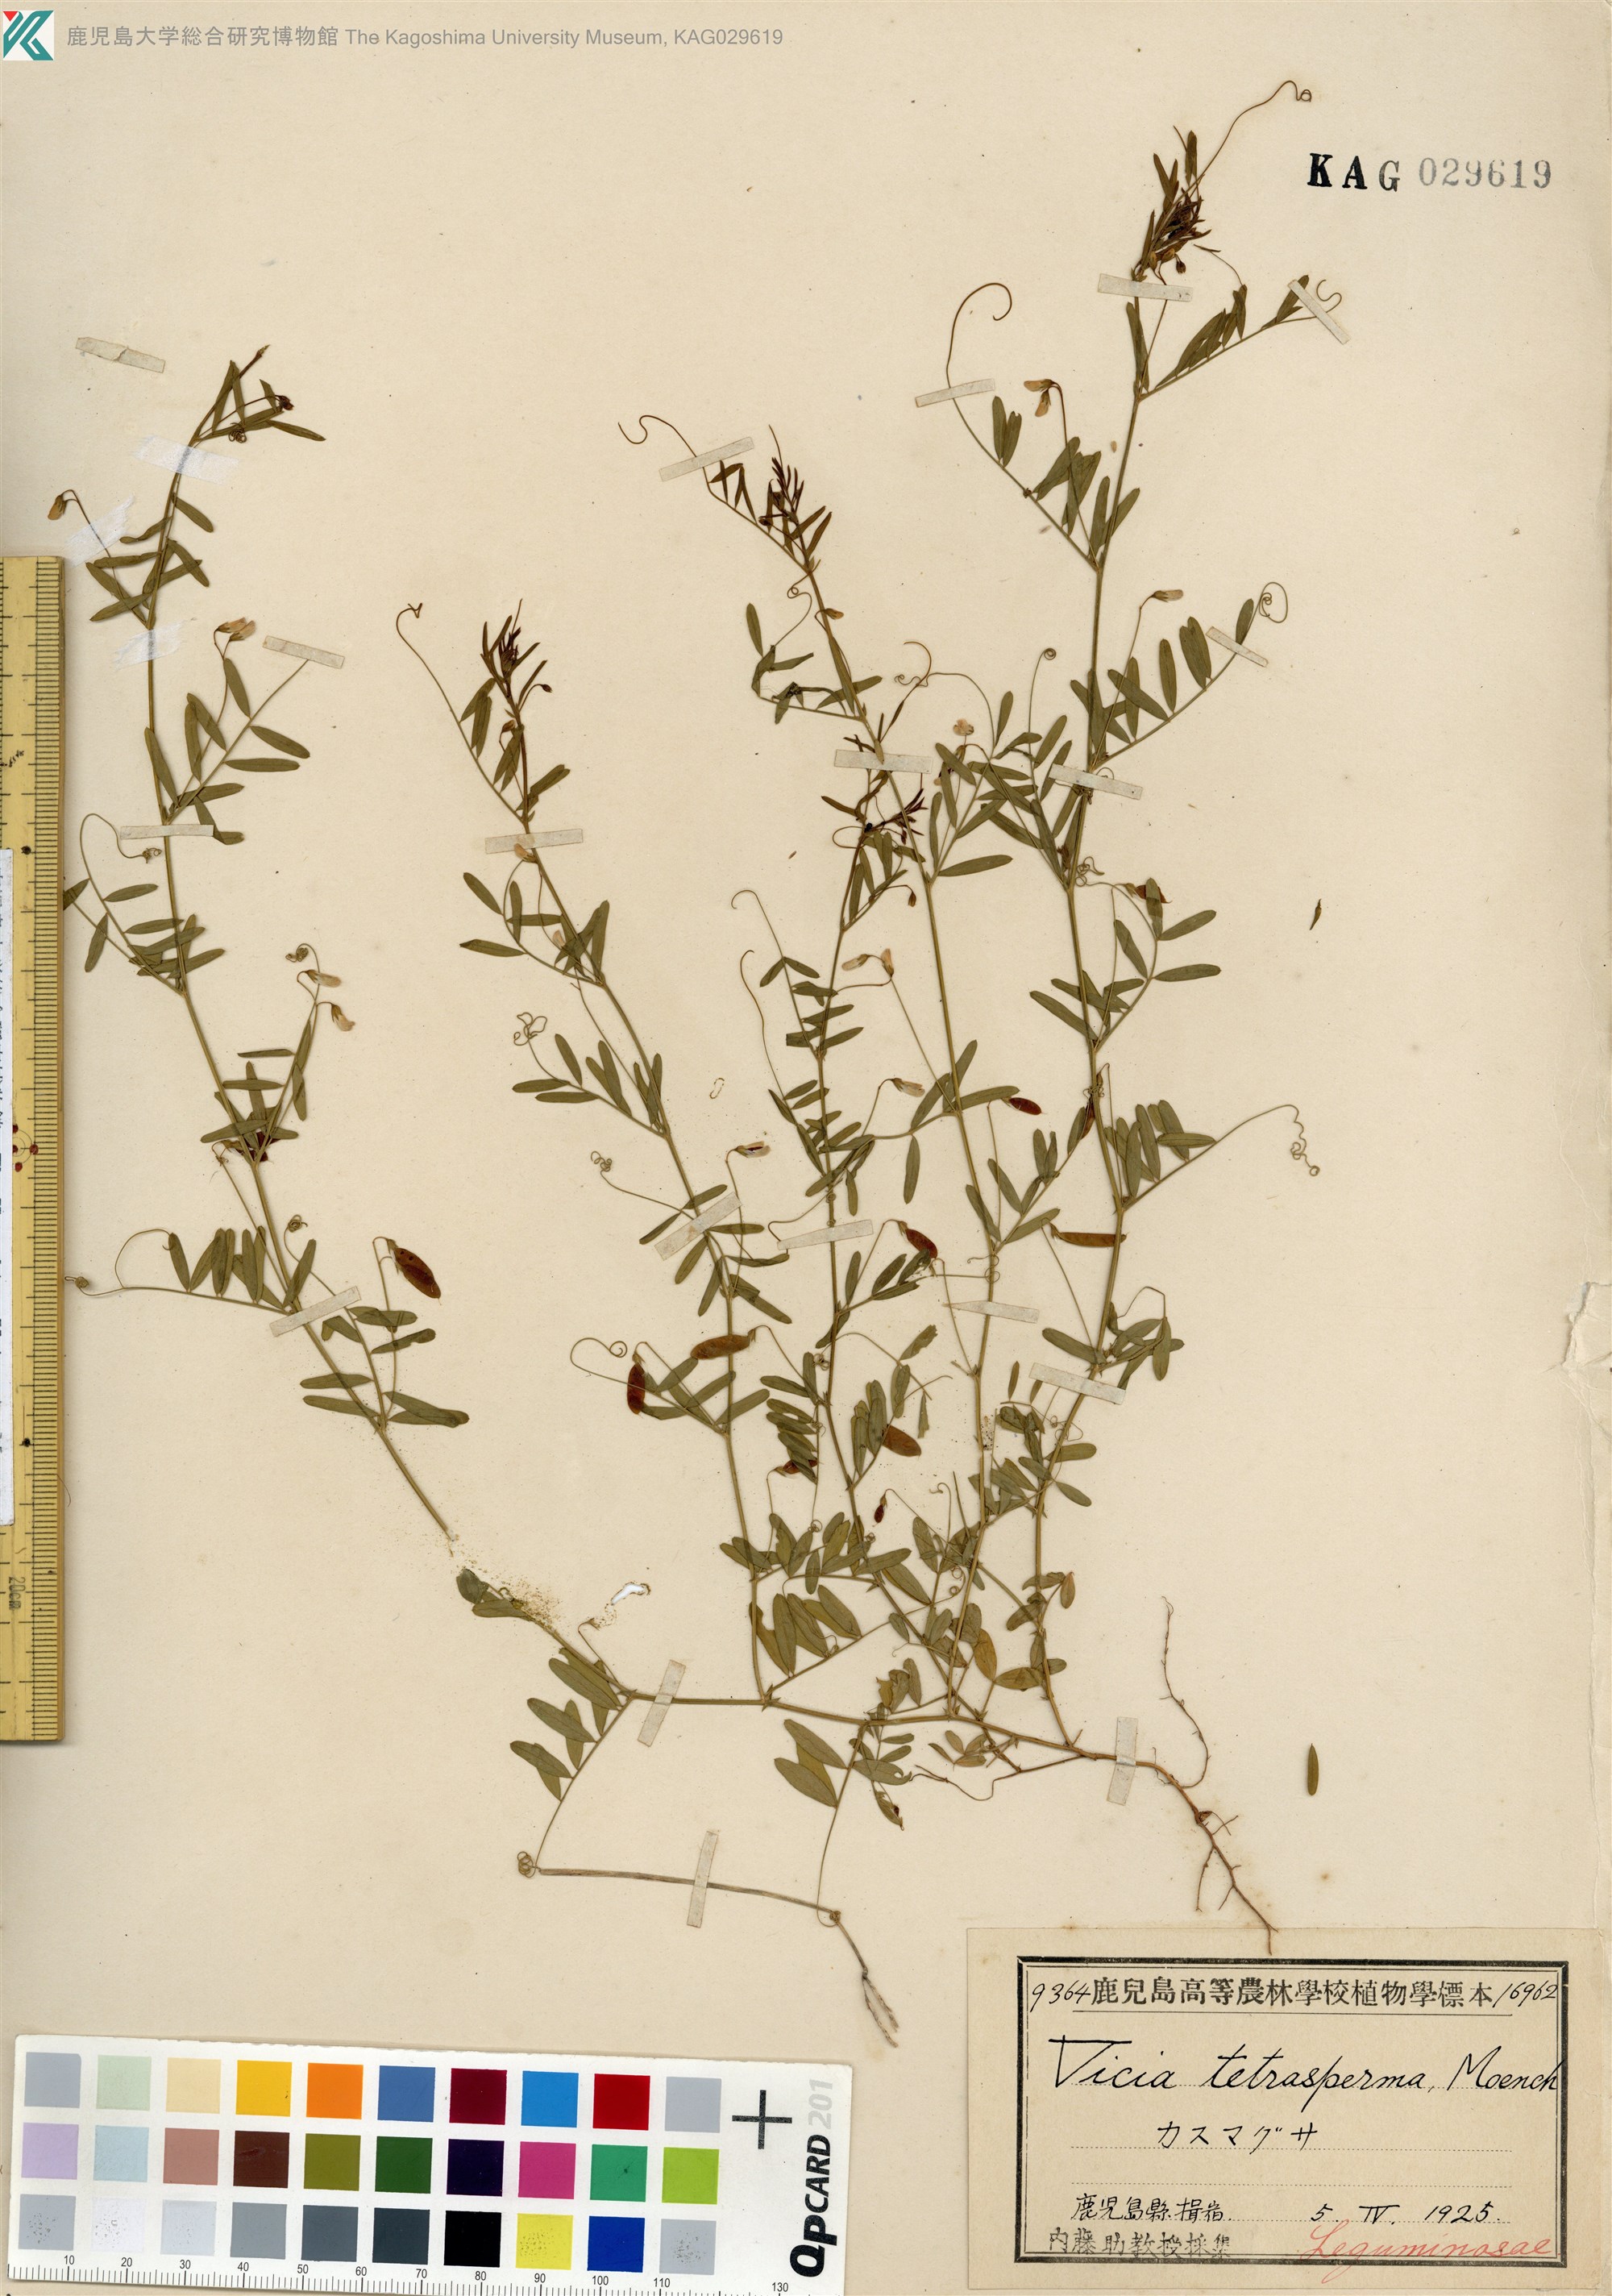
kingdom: Plantae
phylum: Tracheophyta
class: Magnoliopsida
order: Fabales
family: Fabaceae
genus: Vicia
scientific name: Vicia tetrasperma
